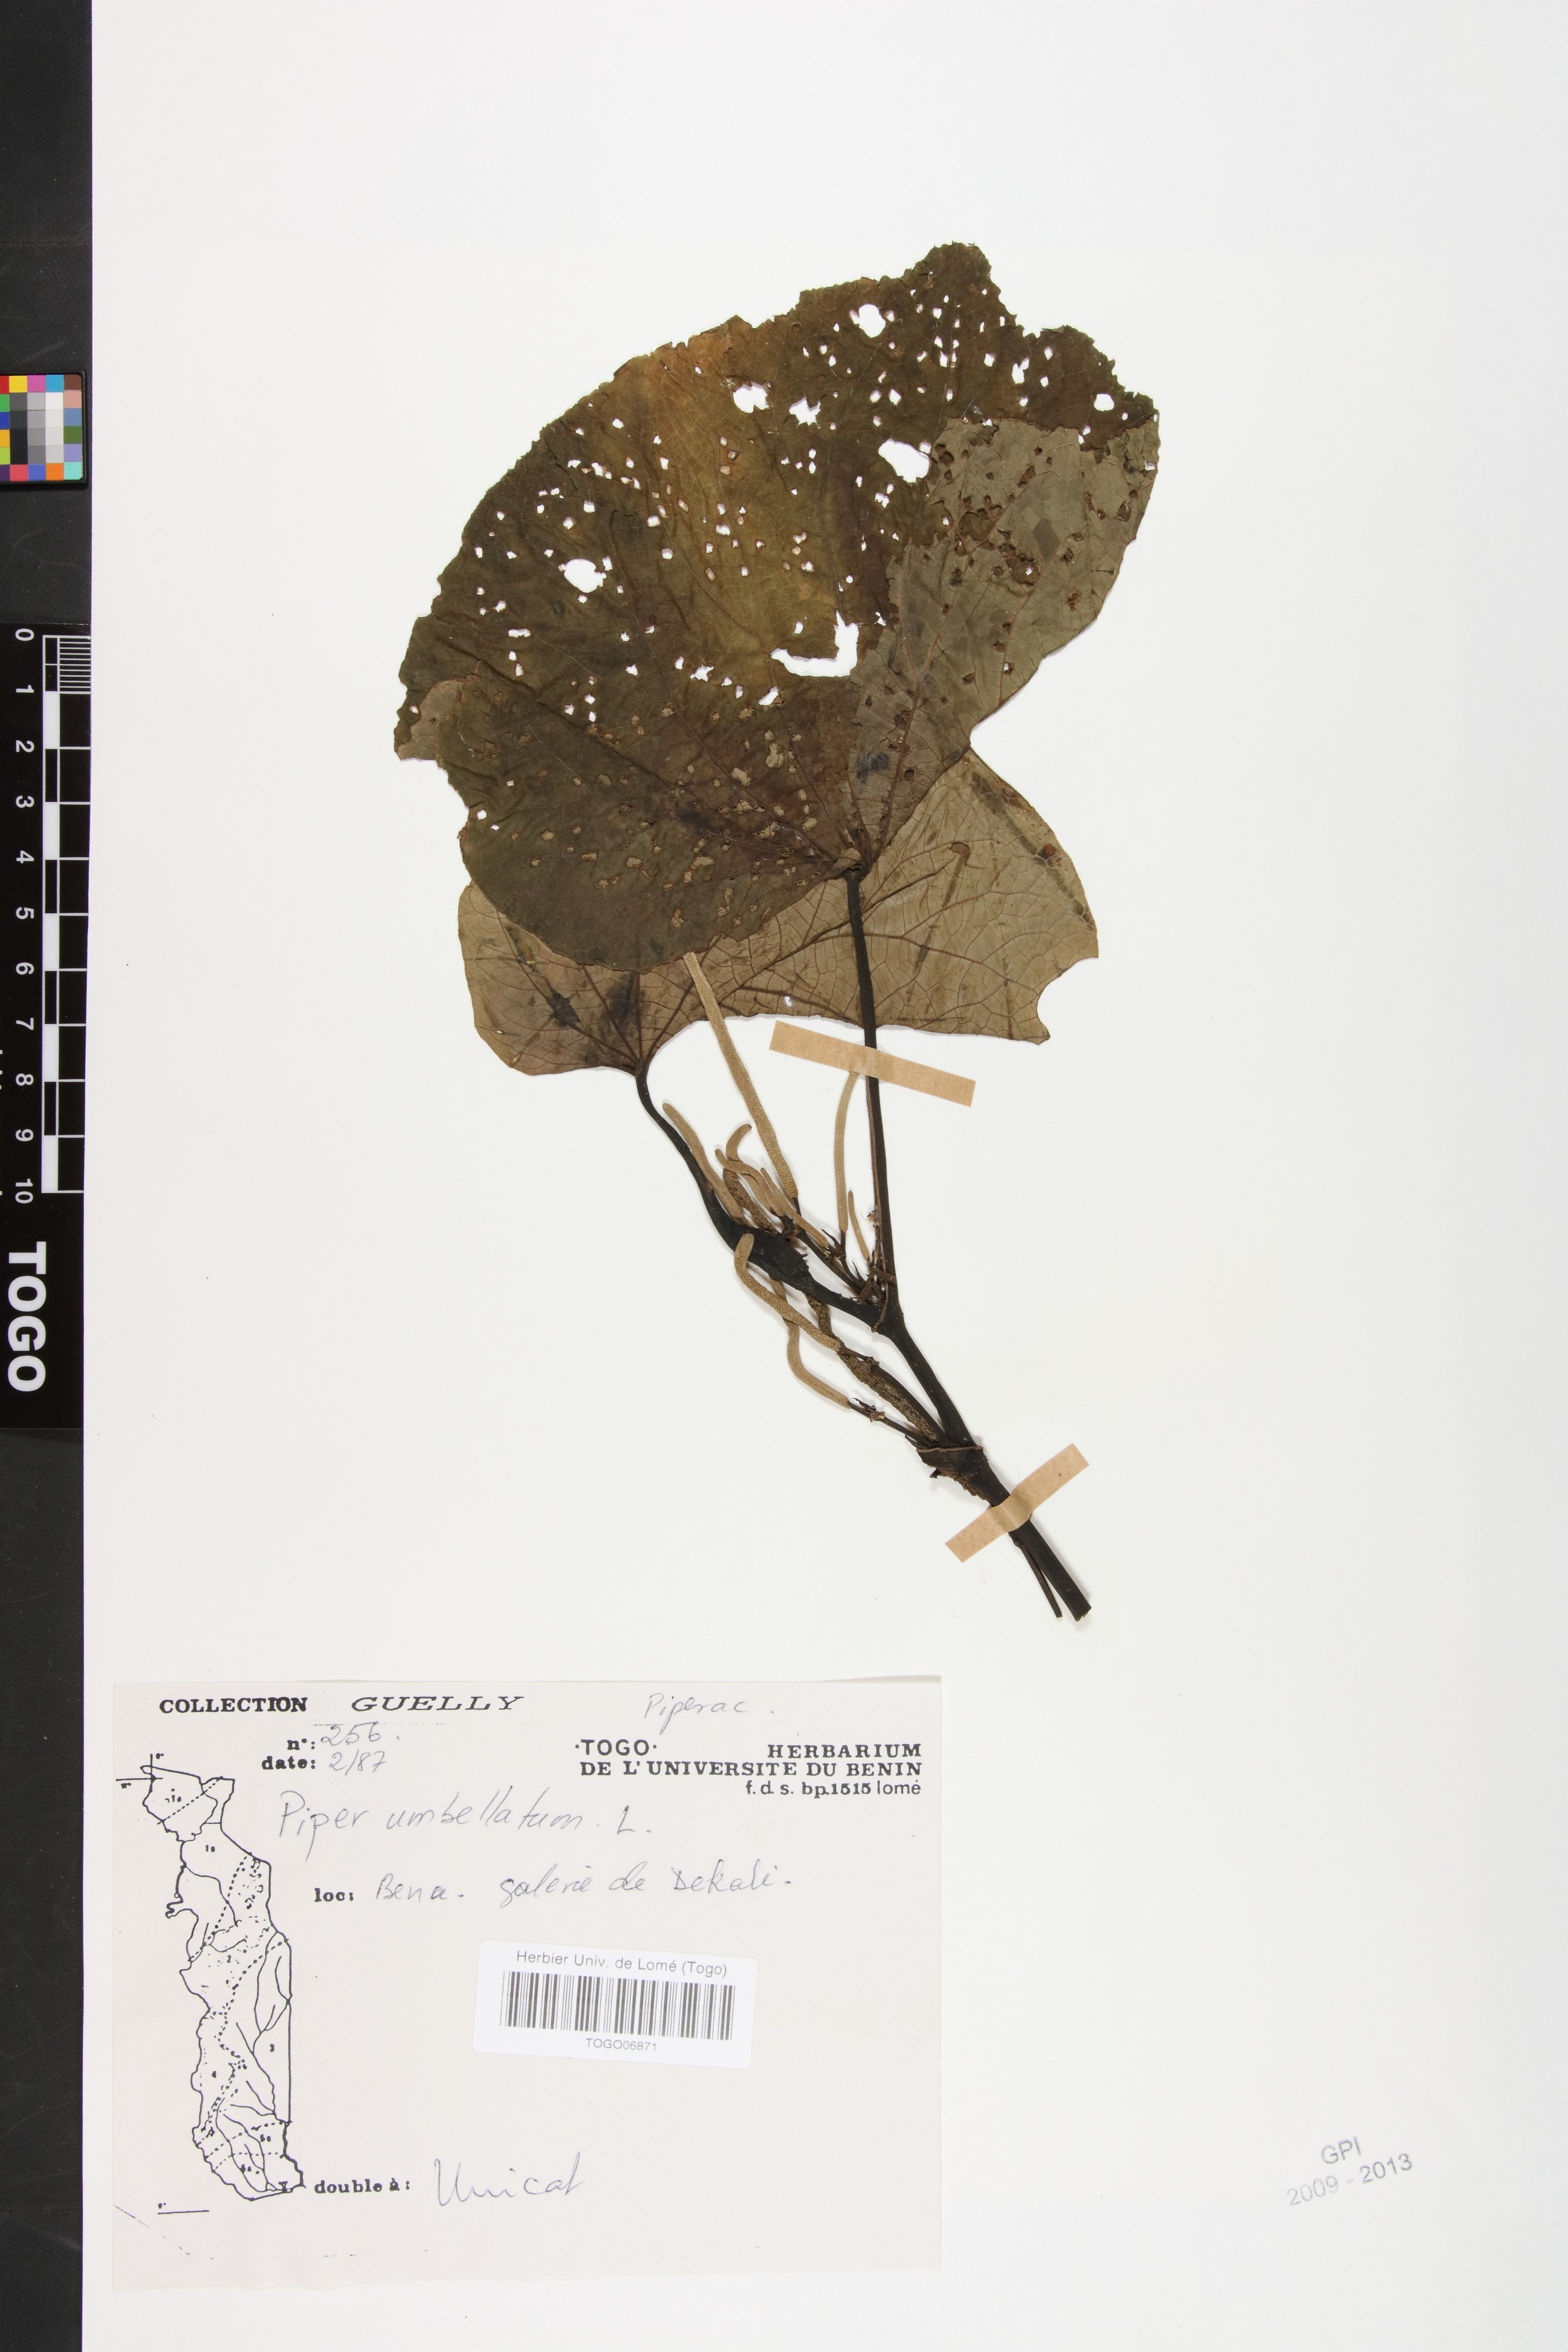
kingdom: Plantae
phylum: Tracheophyta
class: Magnoliopsida
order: Piperales
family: Piperaceae
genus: Piper
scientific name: Piper umbellatum
